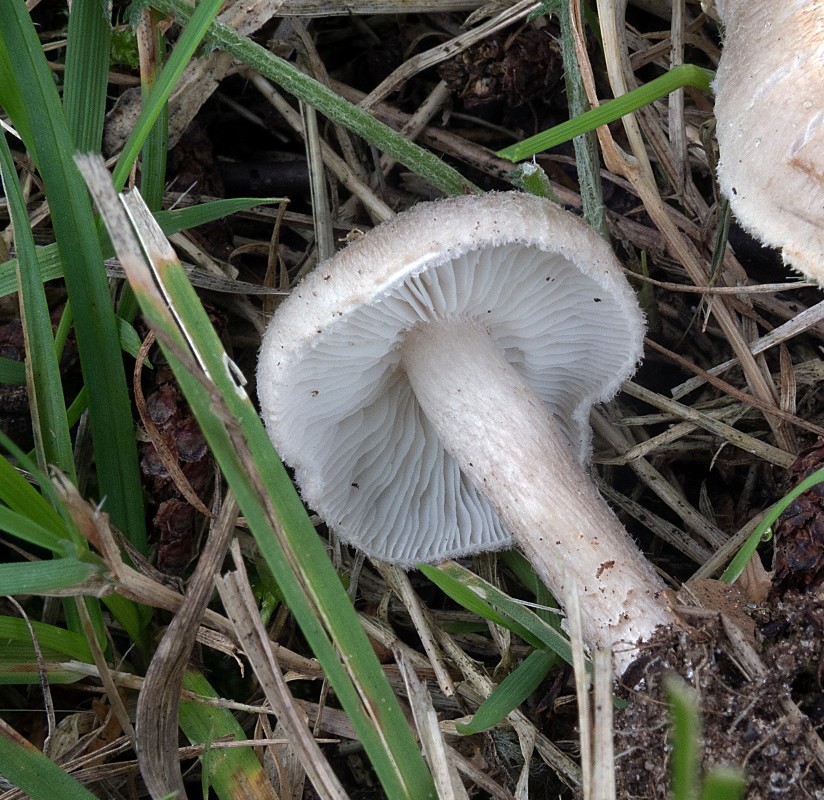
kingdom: Fungi
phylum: Basidiomycota
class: Agaricomycetes
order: Agaricales
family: Tricholomataceae
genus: Tricholoma
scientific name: Tricholoma argyraceum
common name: slør-ridderhat
